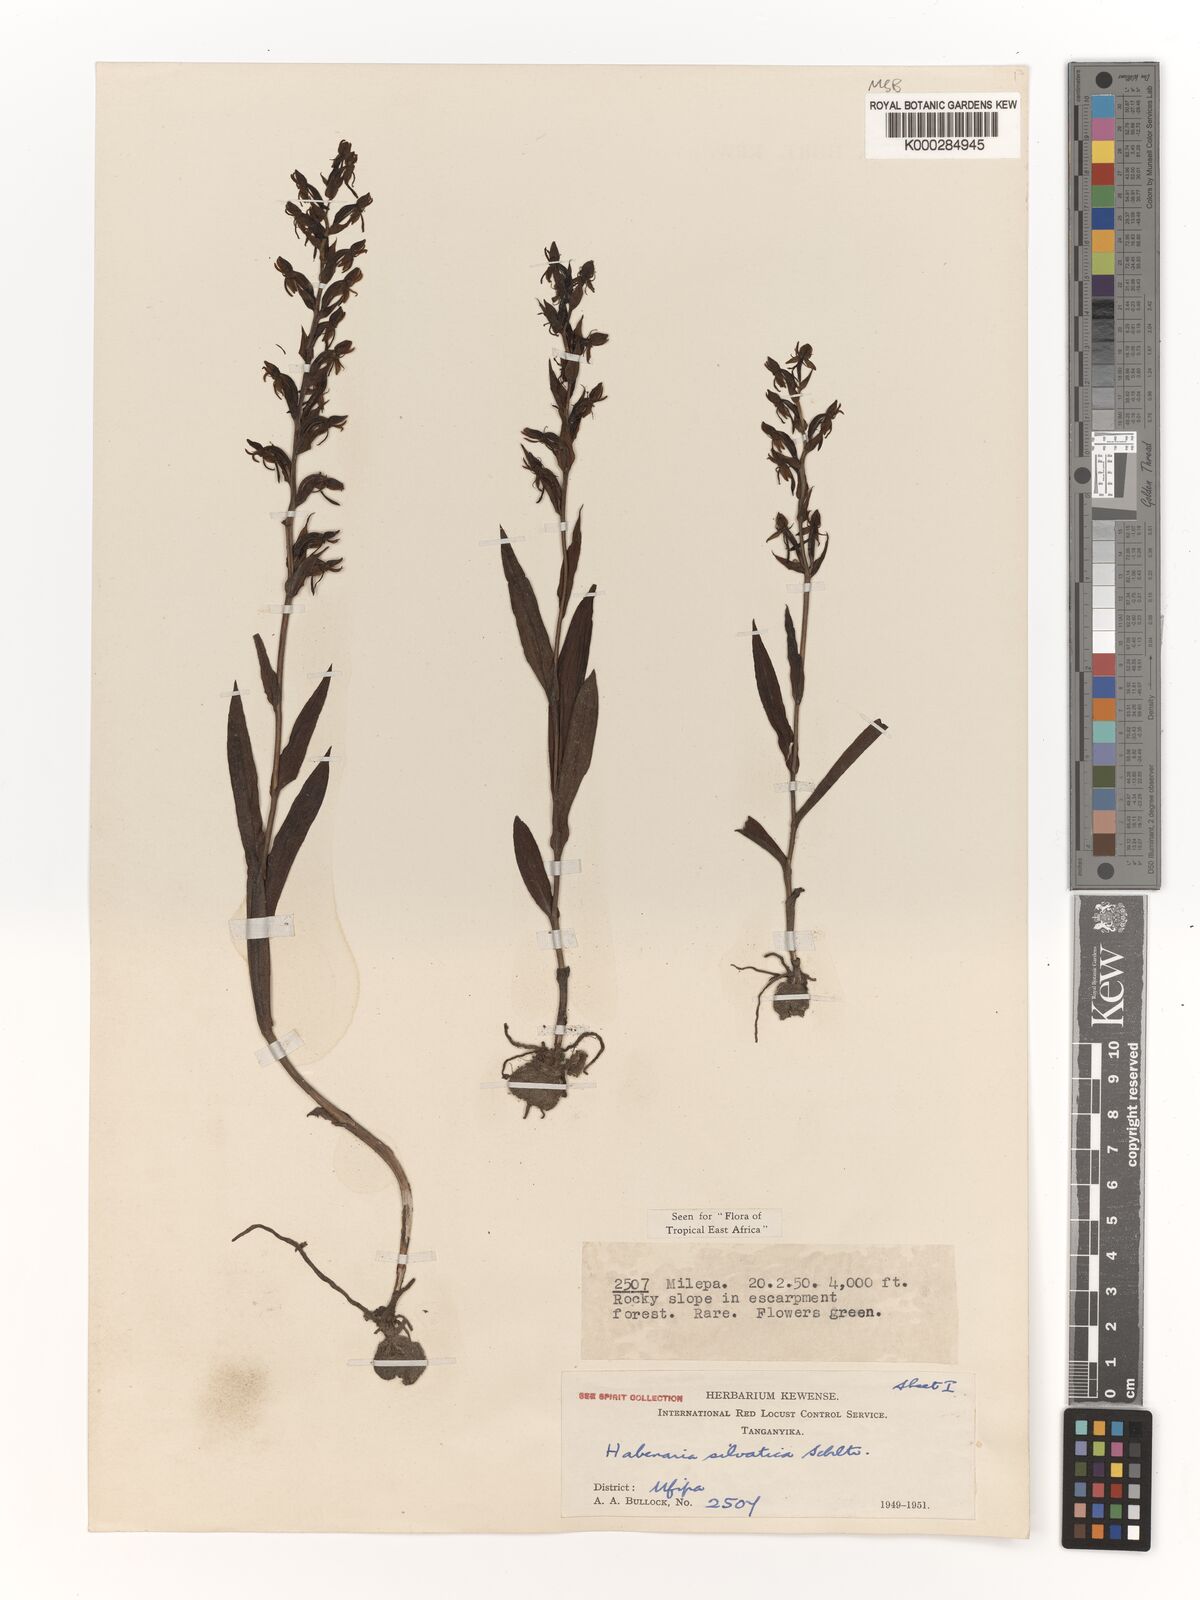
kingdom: Plantae
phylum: Tracheophyta
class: Liliopsida
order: Asparagales
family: Orchidaceae
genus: Habenaria
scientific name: Habenaria silvatica
